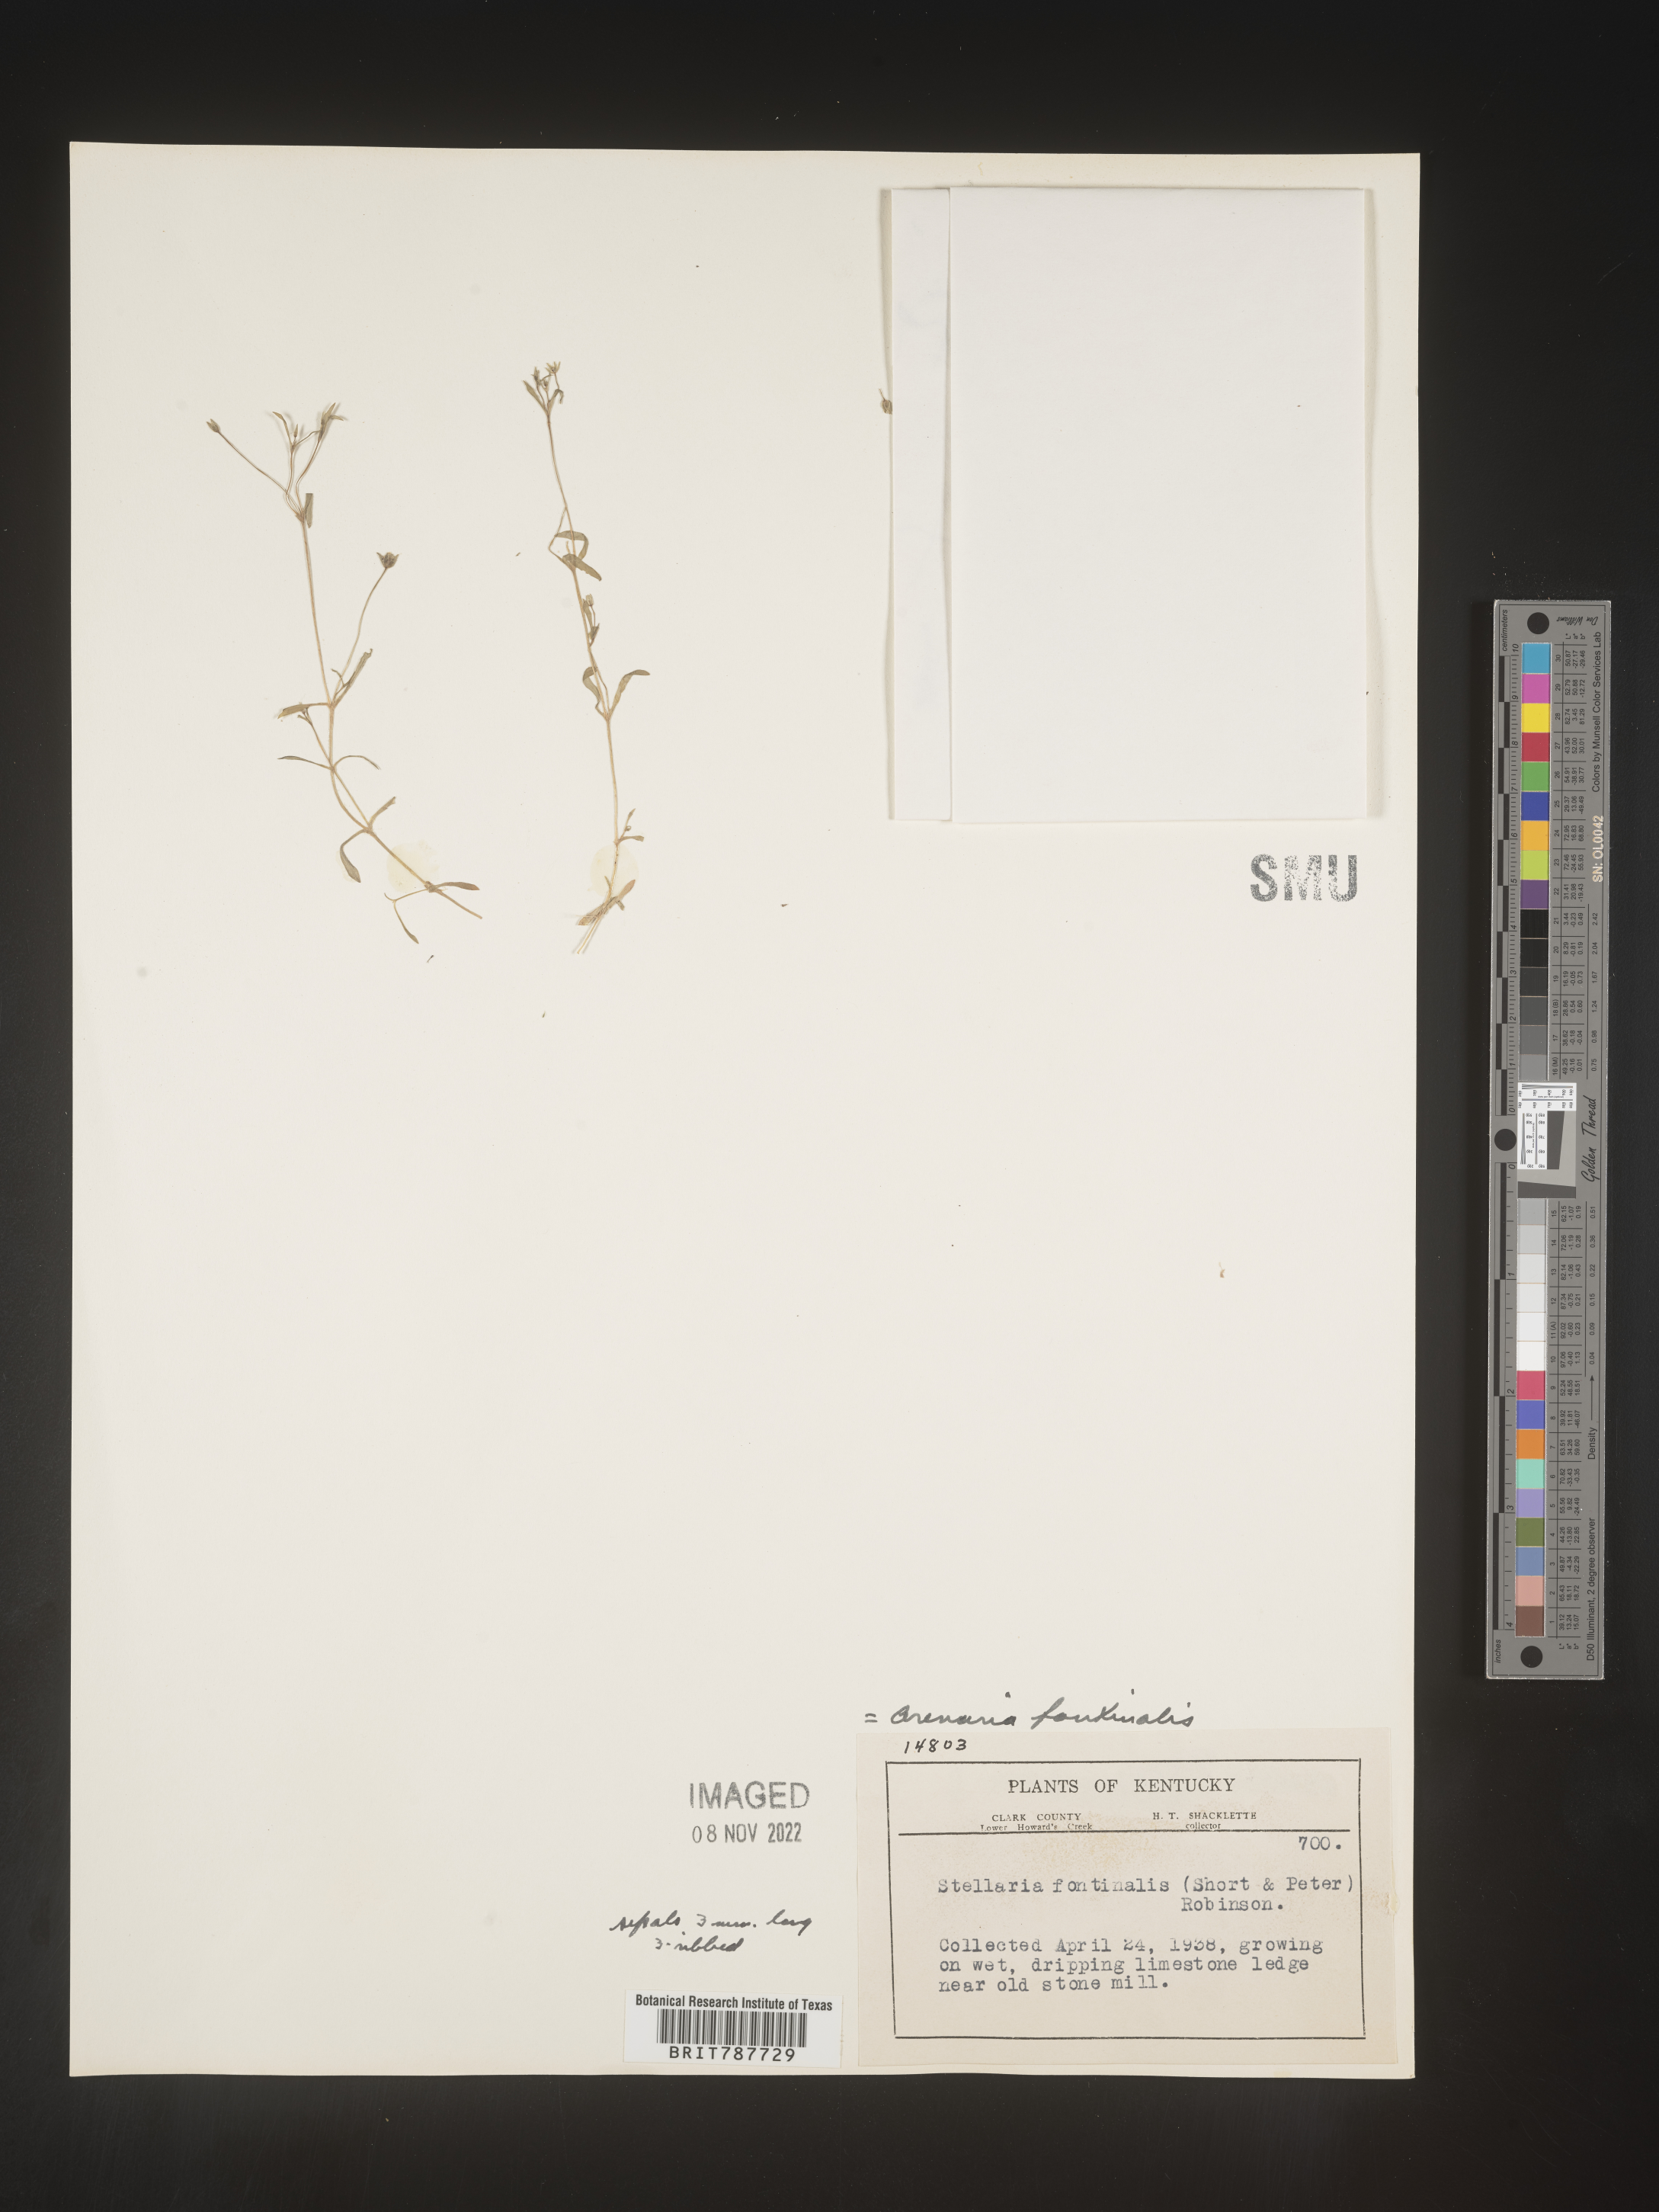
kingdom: Plantae
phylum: Tracheophyta
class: Magnoliopsida
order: Caryophyllales
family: Caryophyllaceae
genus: Arenaria
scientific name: Arenaria
